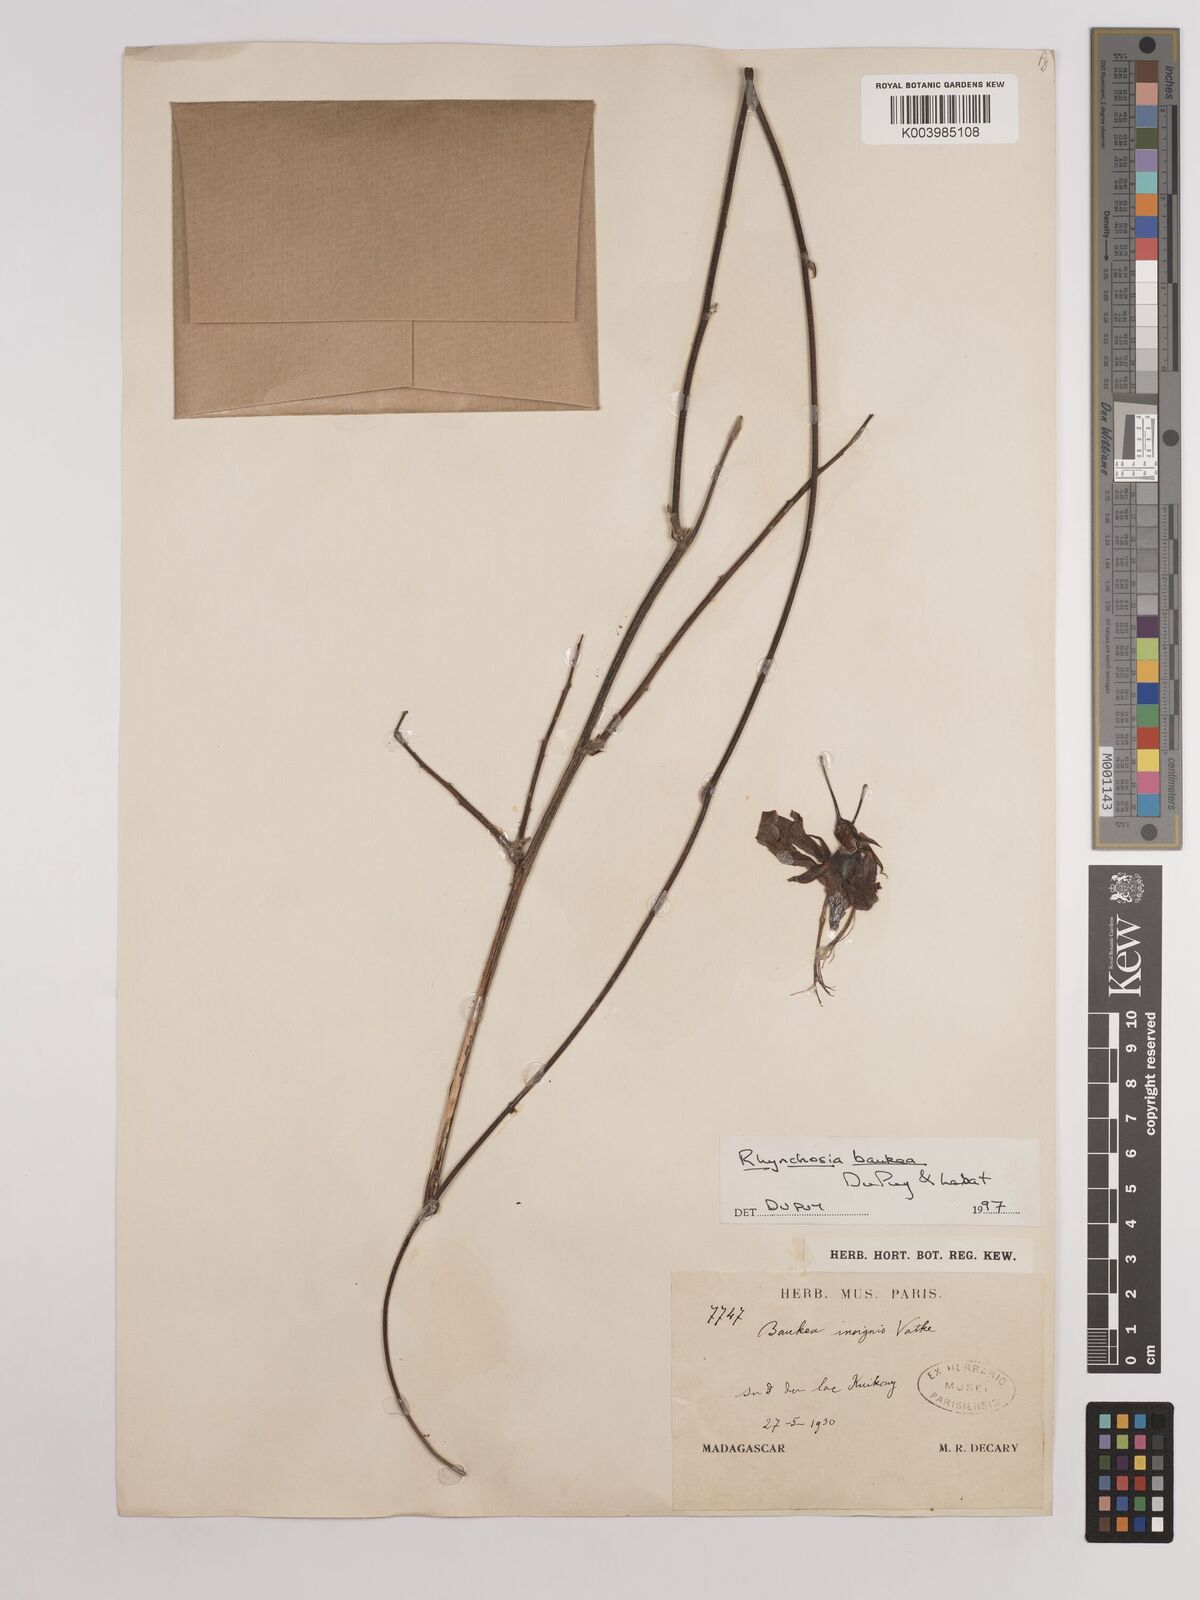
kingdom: Plantae
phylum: Tracheophyta
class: Magnoliopsida
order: Fabales
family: Fabaceae
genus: Rhynchosia
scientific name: Rhynchosia baukea
